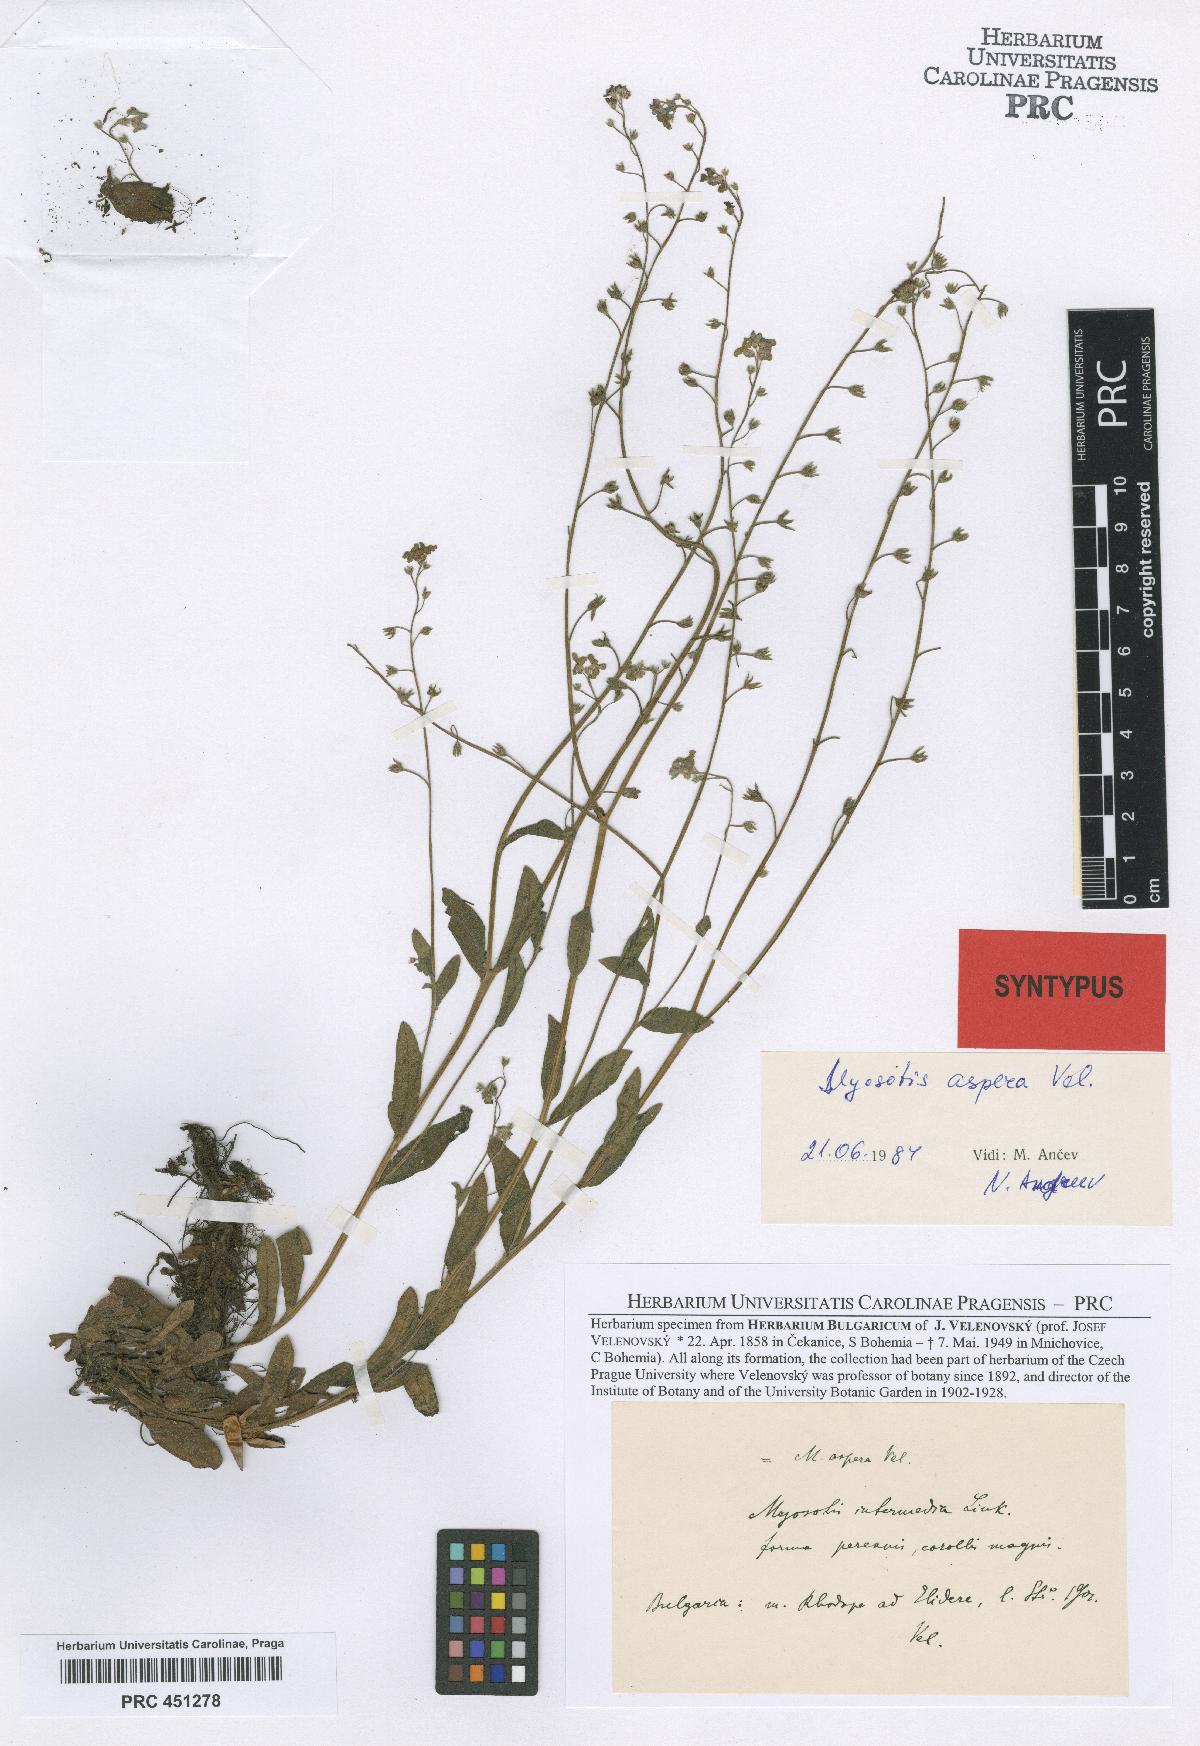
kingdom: Plantae
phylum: Tracheophyta
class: Magnoliopsida
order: Boraginales
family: Boraginaceae
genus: Myosotis
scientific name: Myosotis sylvatica
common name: Wood forget-me-not
